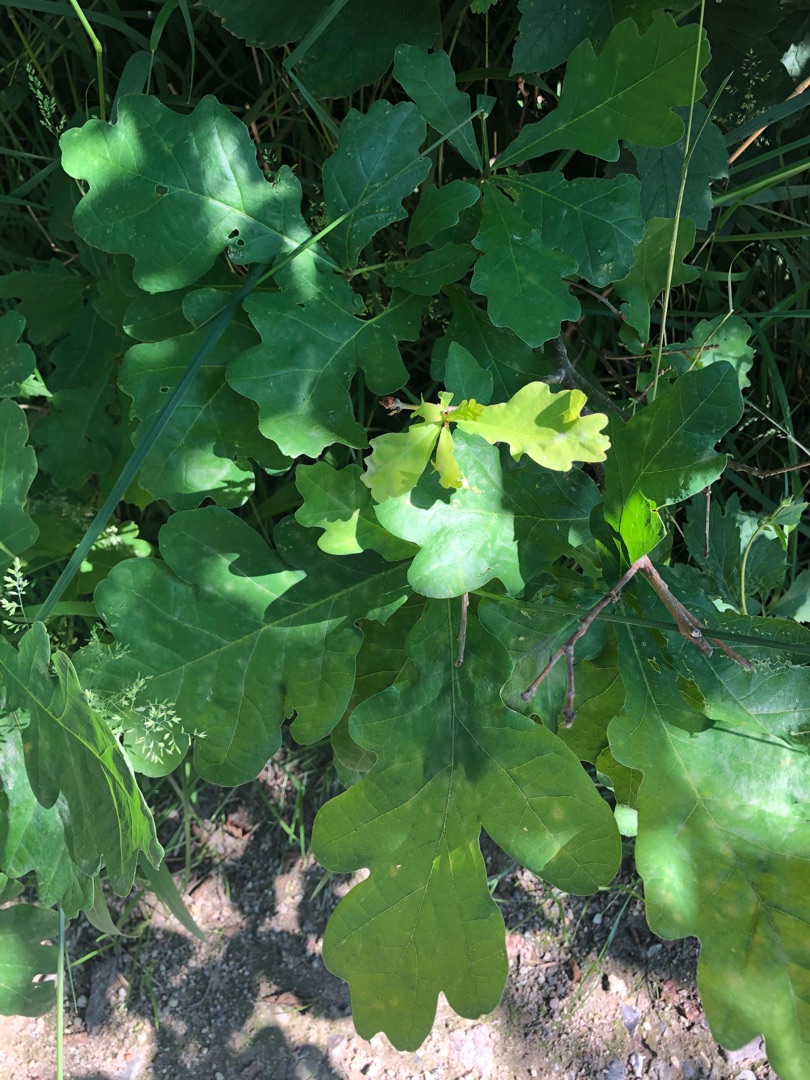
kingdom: Plantae
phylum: Tracheophyta
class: Magnoliopsida
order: Fagales
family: Fagaceae
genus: Quercus
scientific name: Quercus robur
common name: Stilk-eg/almindelig eg
